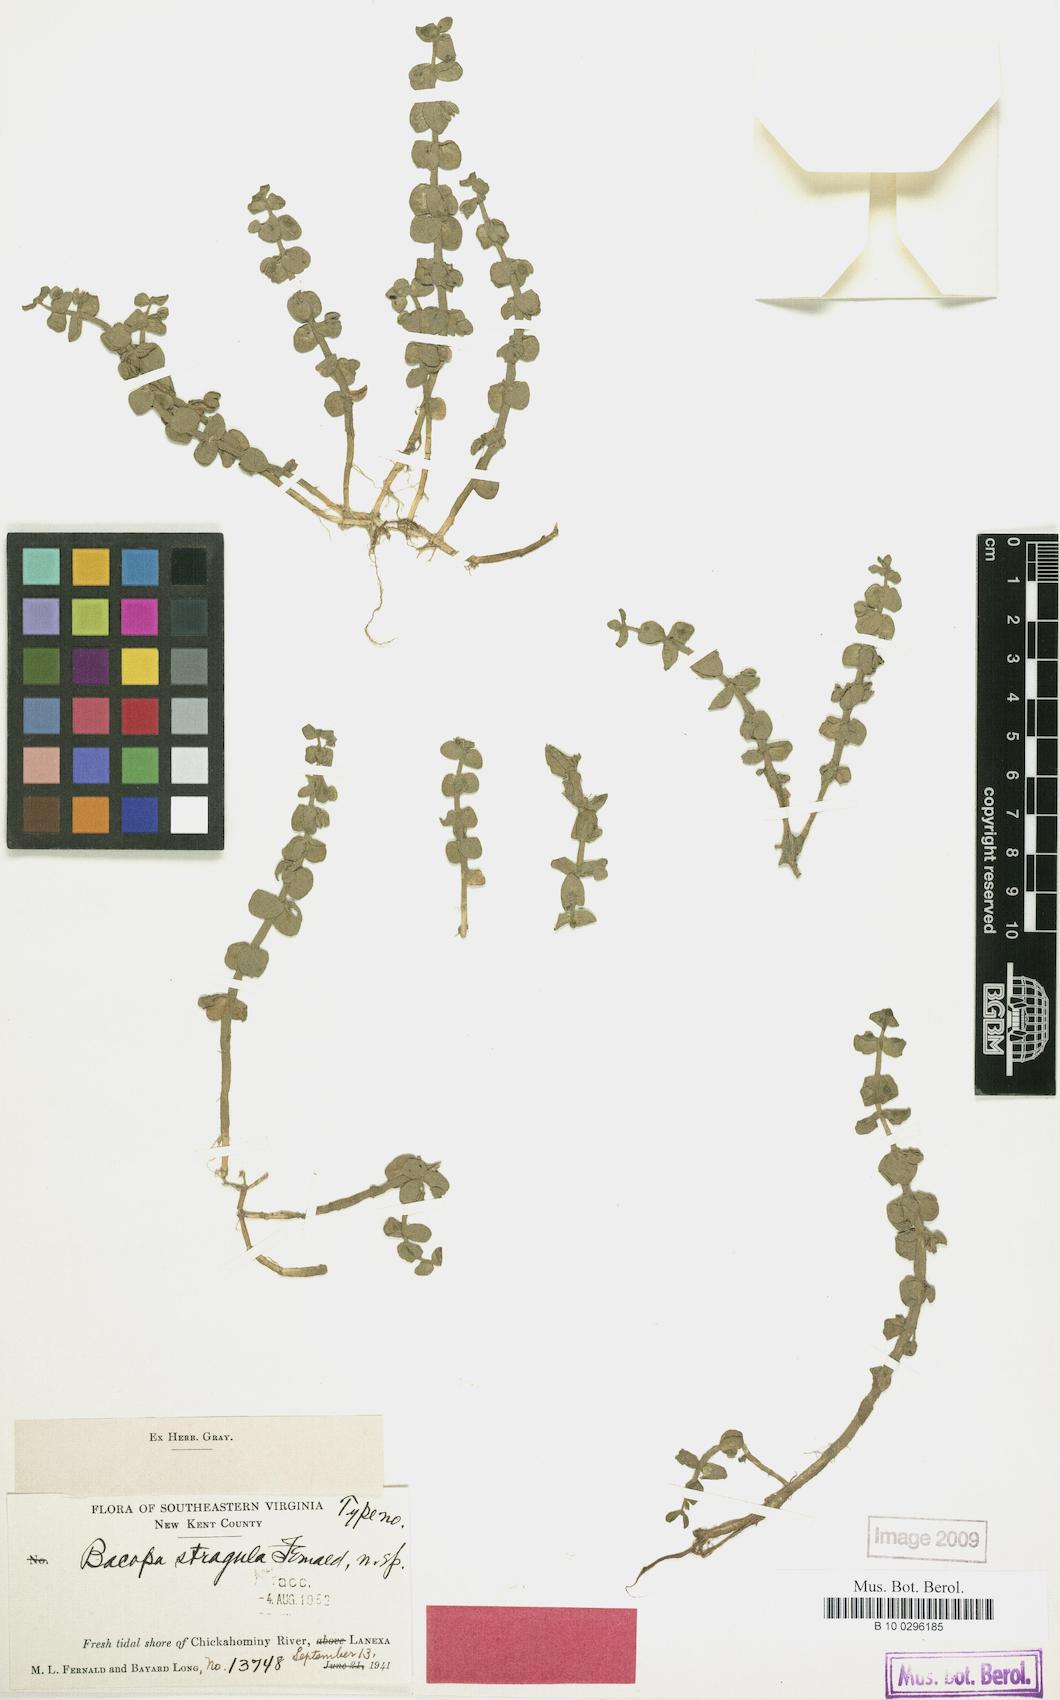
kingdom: Plantae
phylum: Tracheophyta
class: Magnoliopsida
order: Lamiales
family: Plantaginaceae
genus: Bacopa
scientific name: Bacopa innominata
